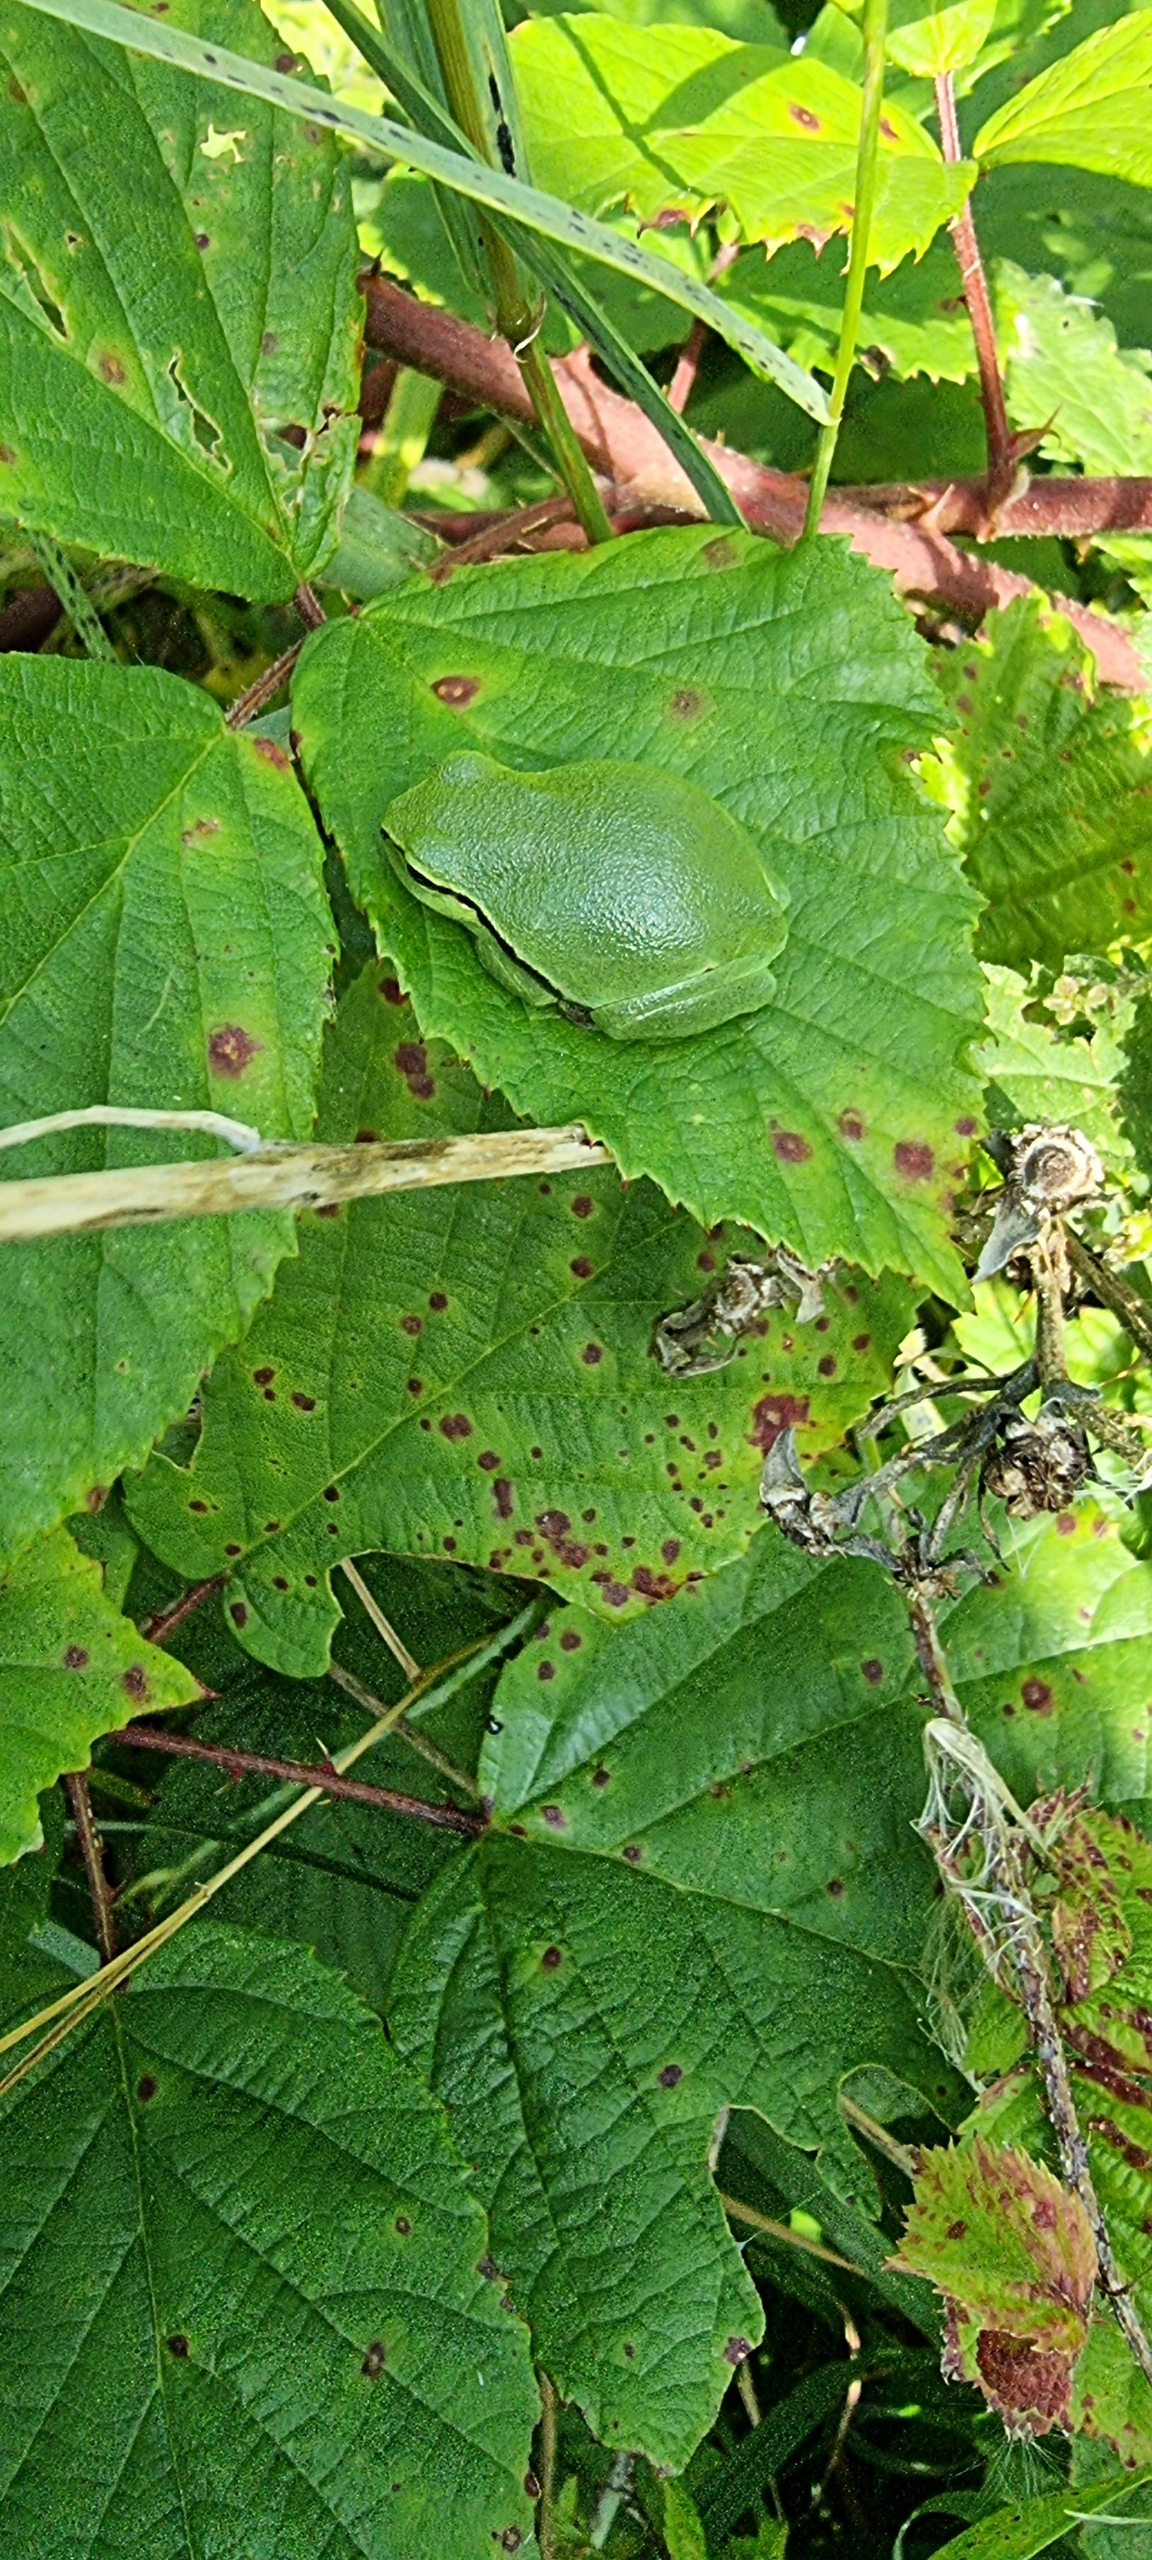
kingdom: Animalia
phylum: Chordata
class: Amphibia
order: Anura
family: Hylidae
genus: Hyla
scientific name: Hyla arborea
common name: Løvfrø
